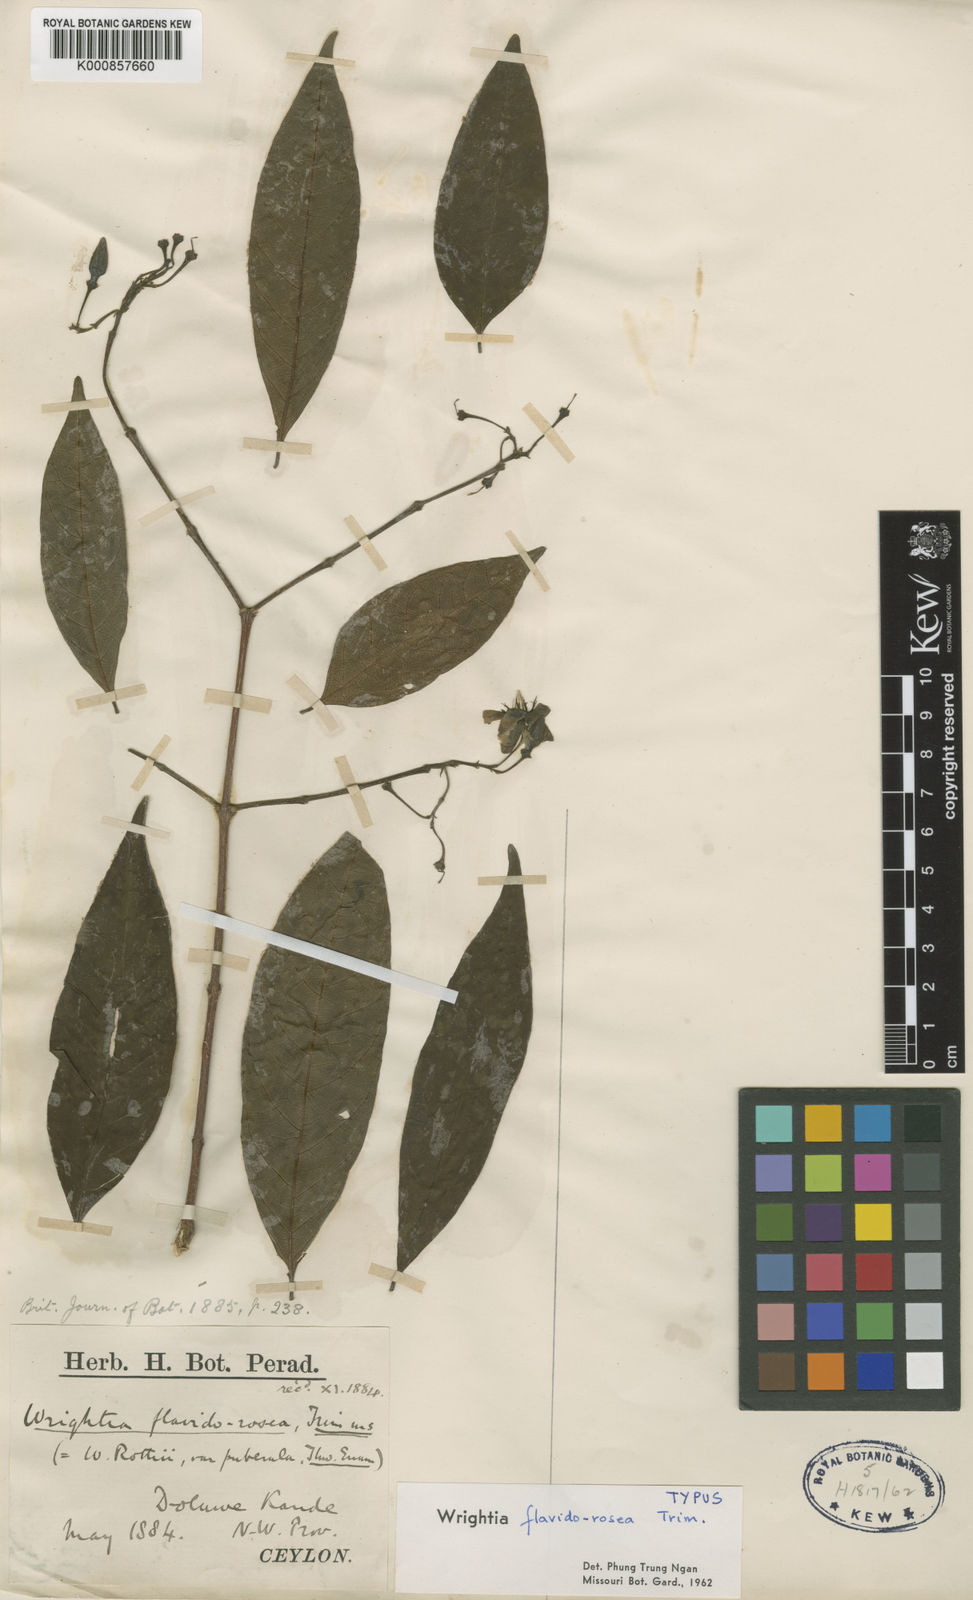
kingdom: Plantae
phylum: Tracheophyta
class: Magnoliopsida
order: Gentianales
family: Apocynaceae
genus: Wrightia
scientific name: Wrightia flavidorosea
